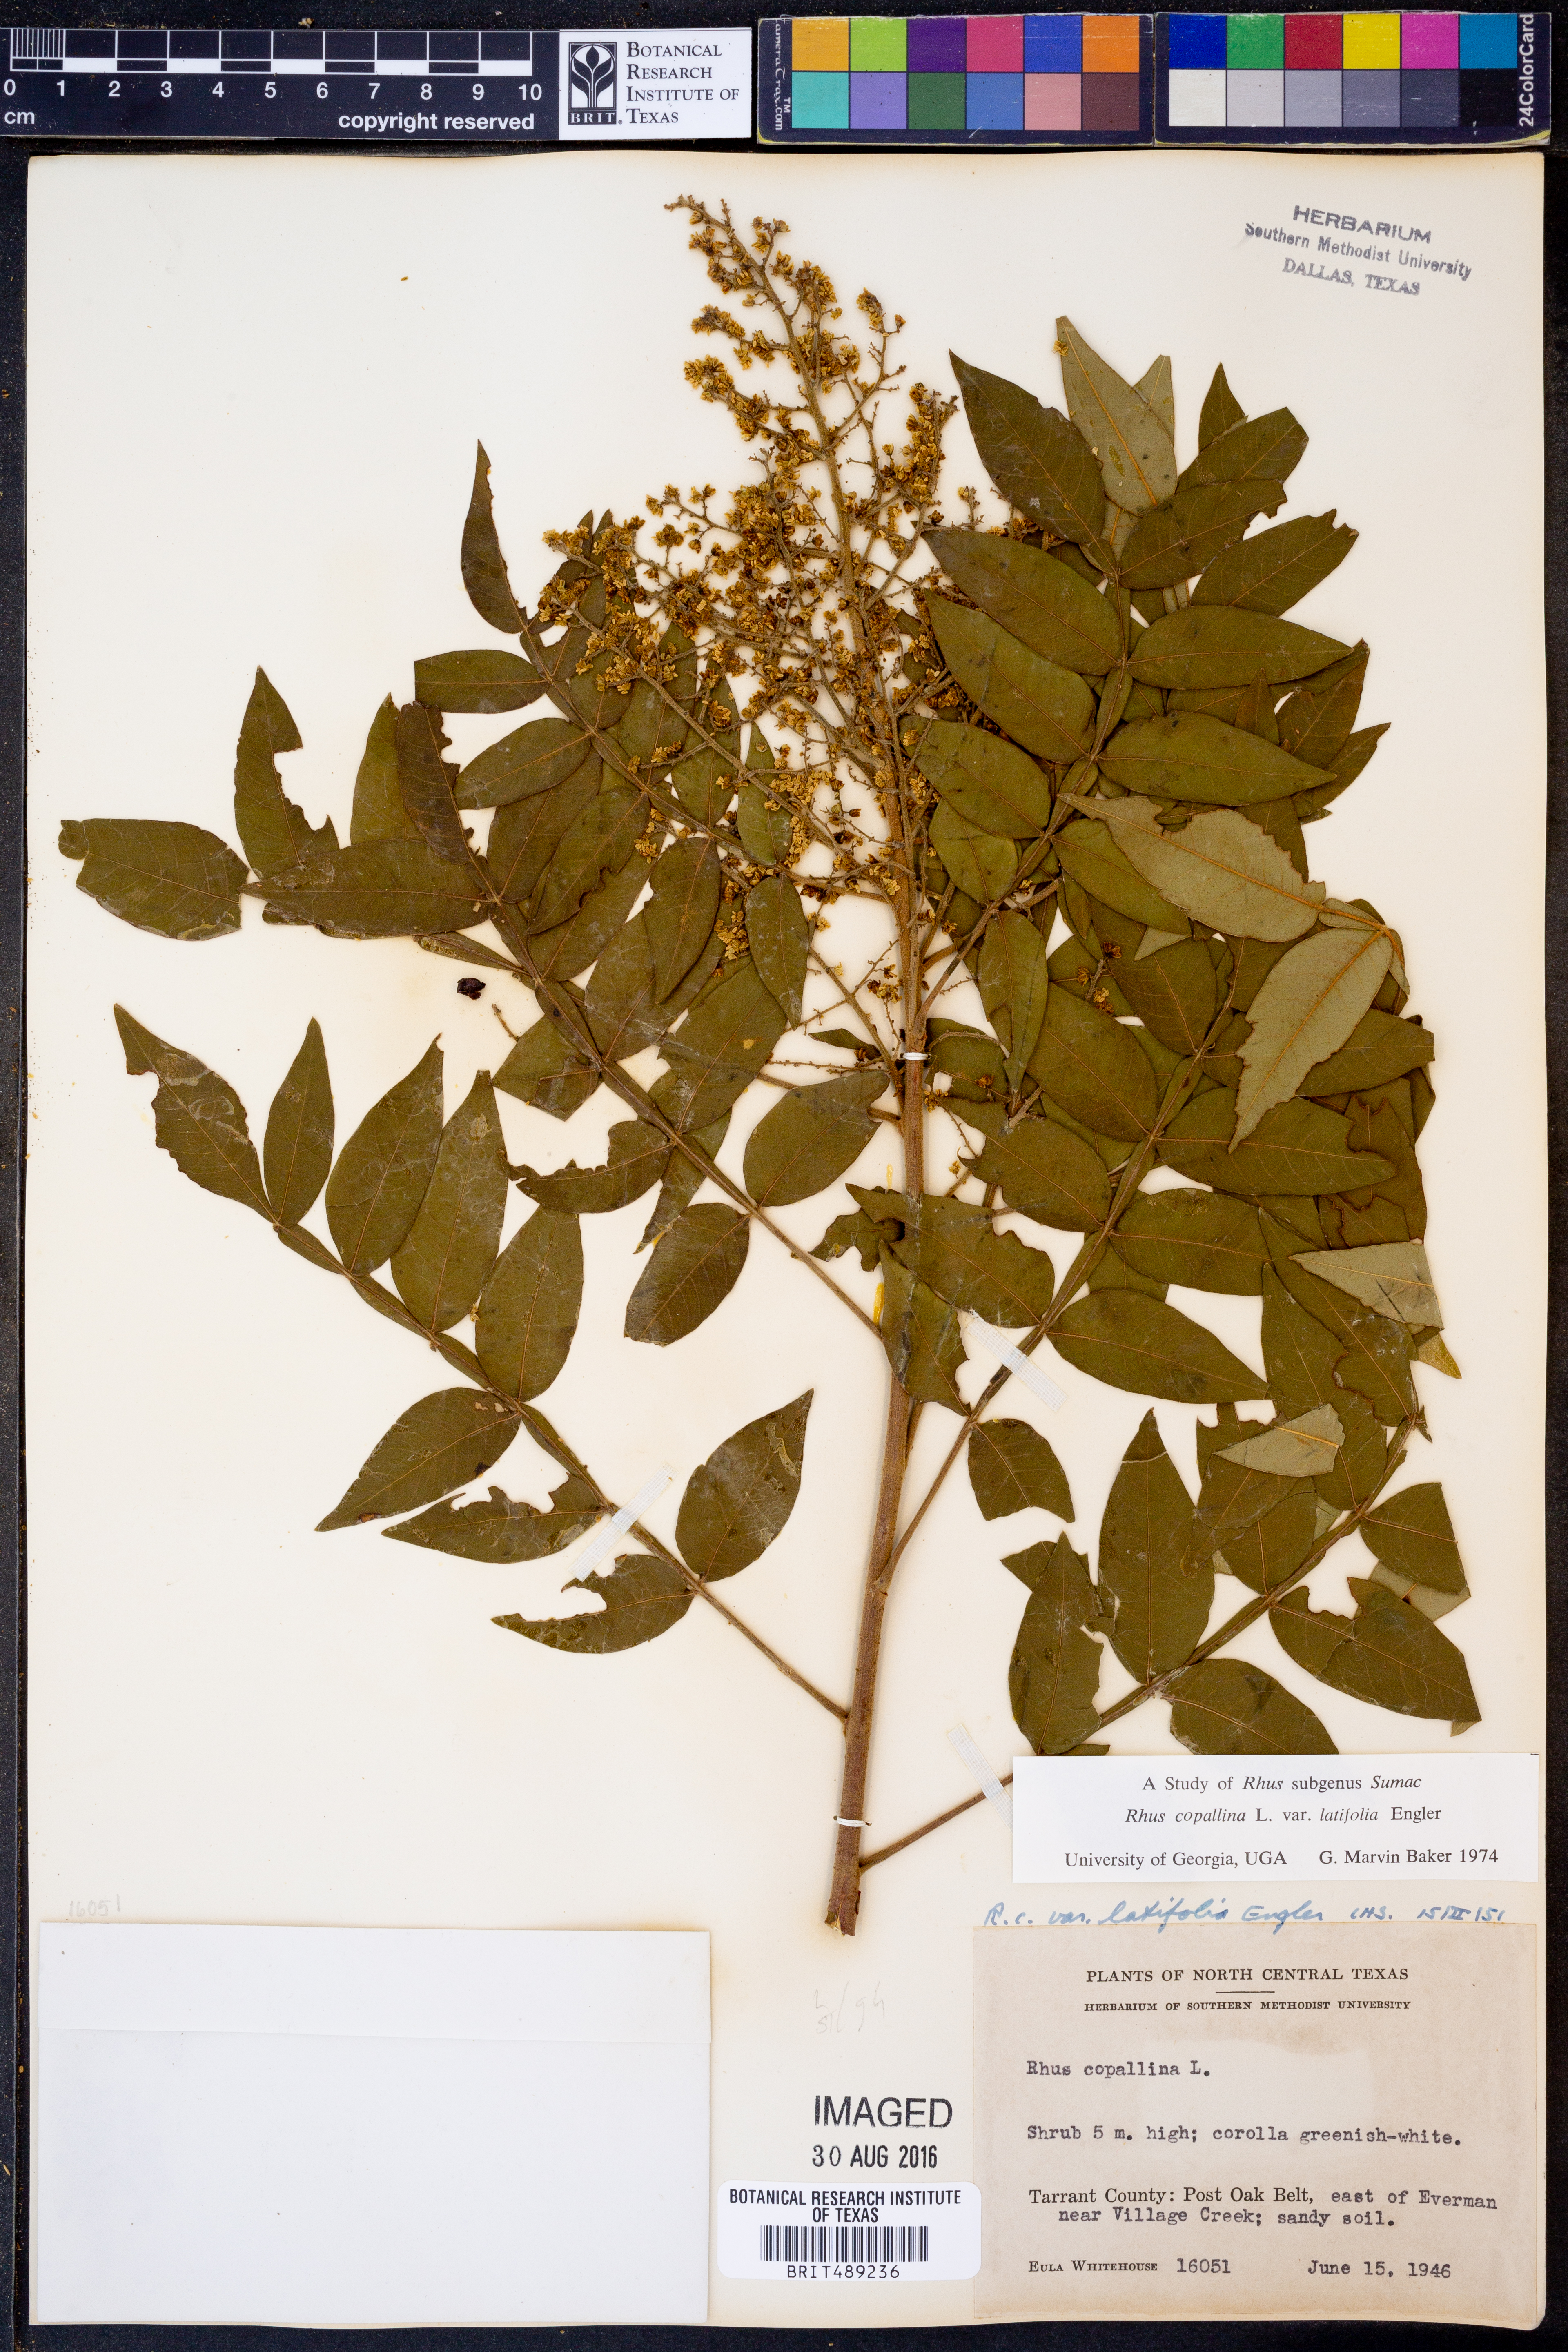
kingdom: Plantae
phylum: Tracheophyta
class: Magnoliopsida
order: Sapindales
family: Anacardiaceae
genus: Rhus
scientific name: Rhus copallina
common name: Shining sumac
